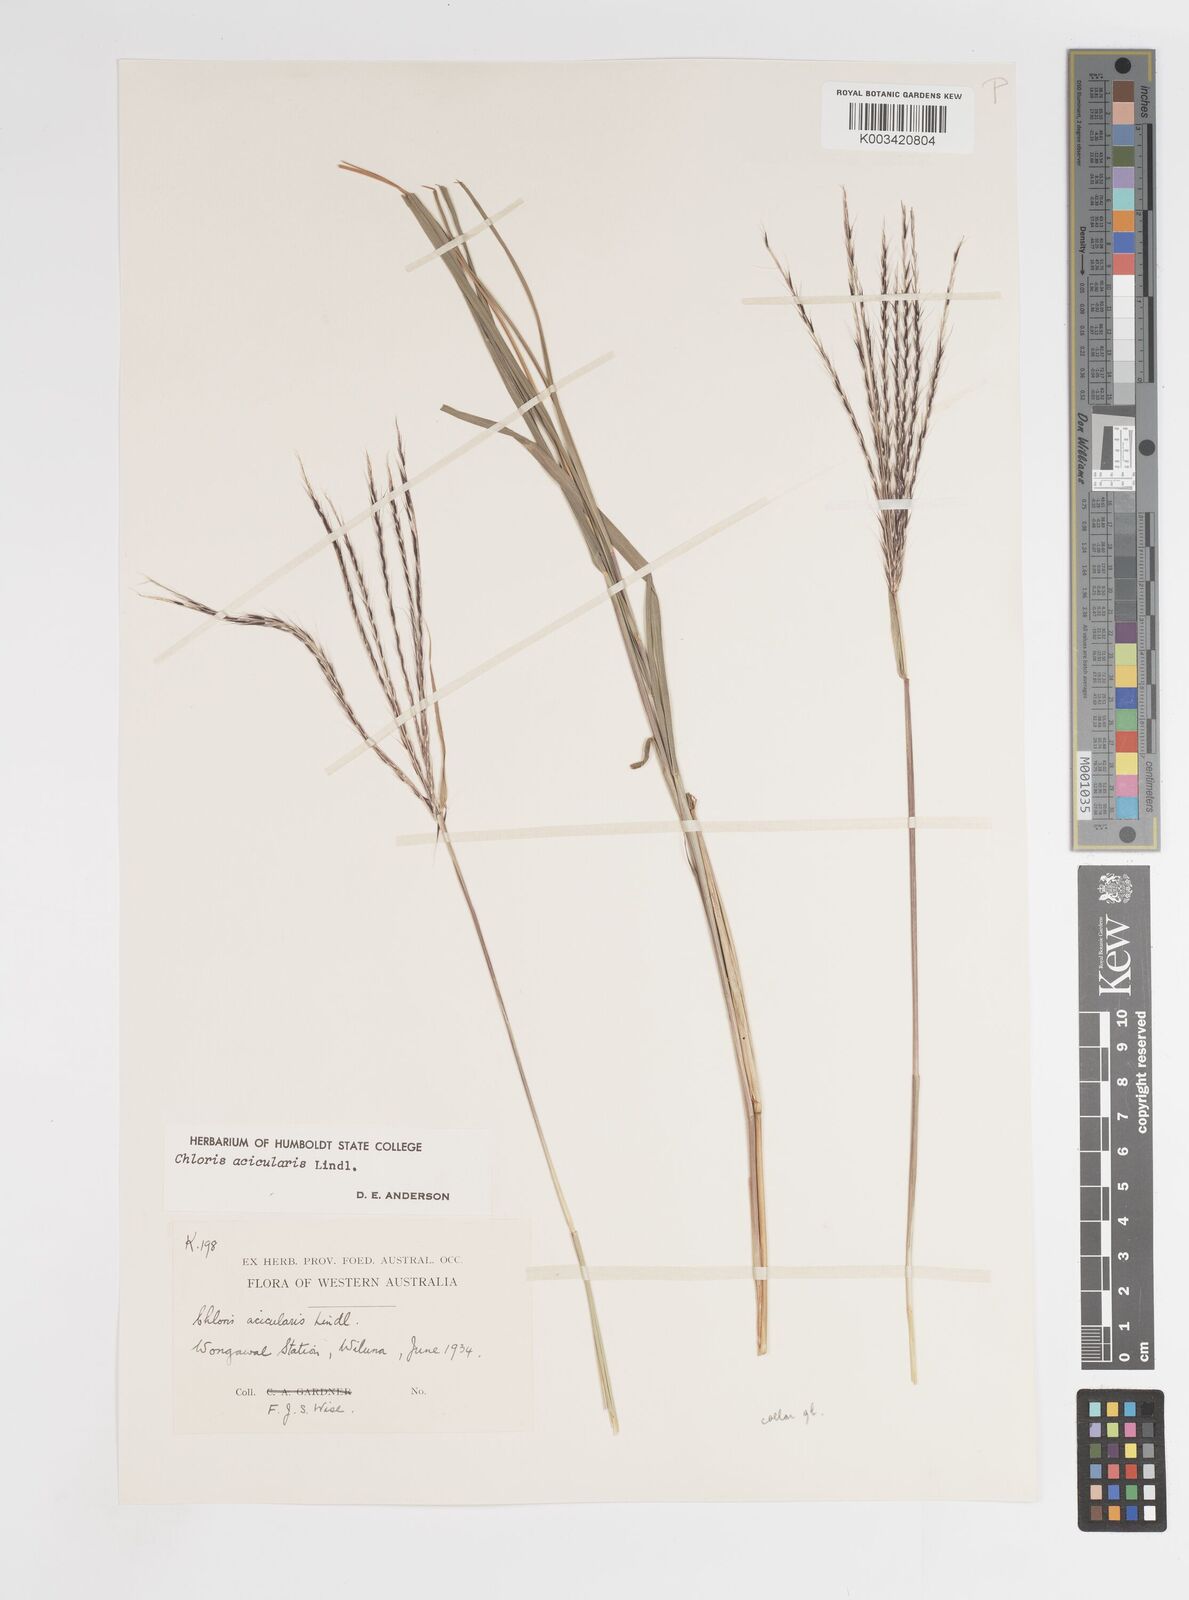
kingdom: Plantae
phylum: Tracheophyta
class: Liliopsida
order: Poales
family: Poaceae
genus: Enteropogon
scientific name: Enteropogon acicularis
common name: Curly windmill grass
